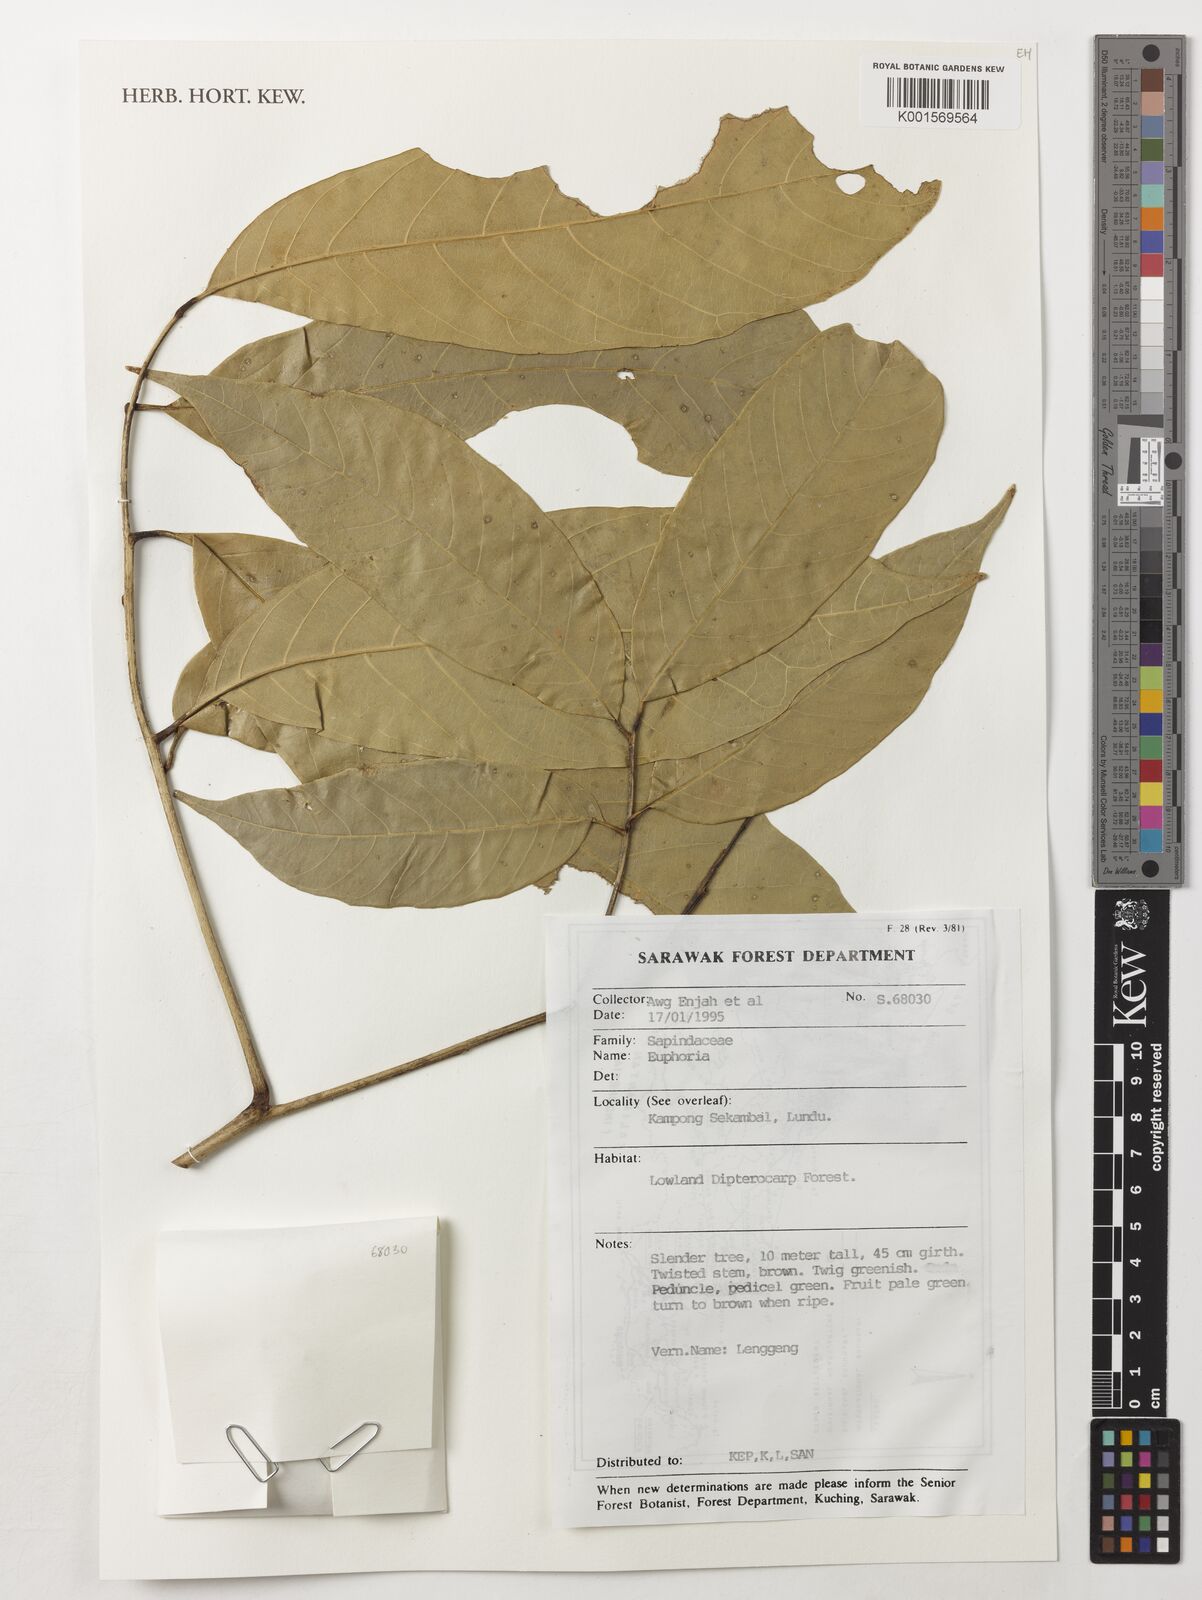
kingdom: Animalia
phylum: Arthropoda
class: Insecta
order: Coleoptera
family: Scarabaeidae
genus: Euphoria
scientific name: Euphoria
